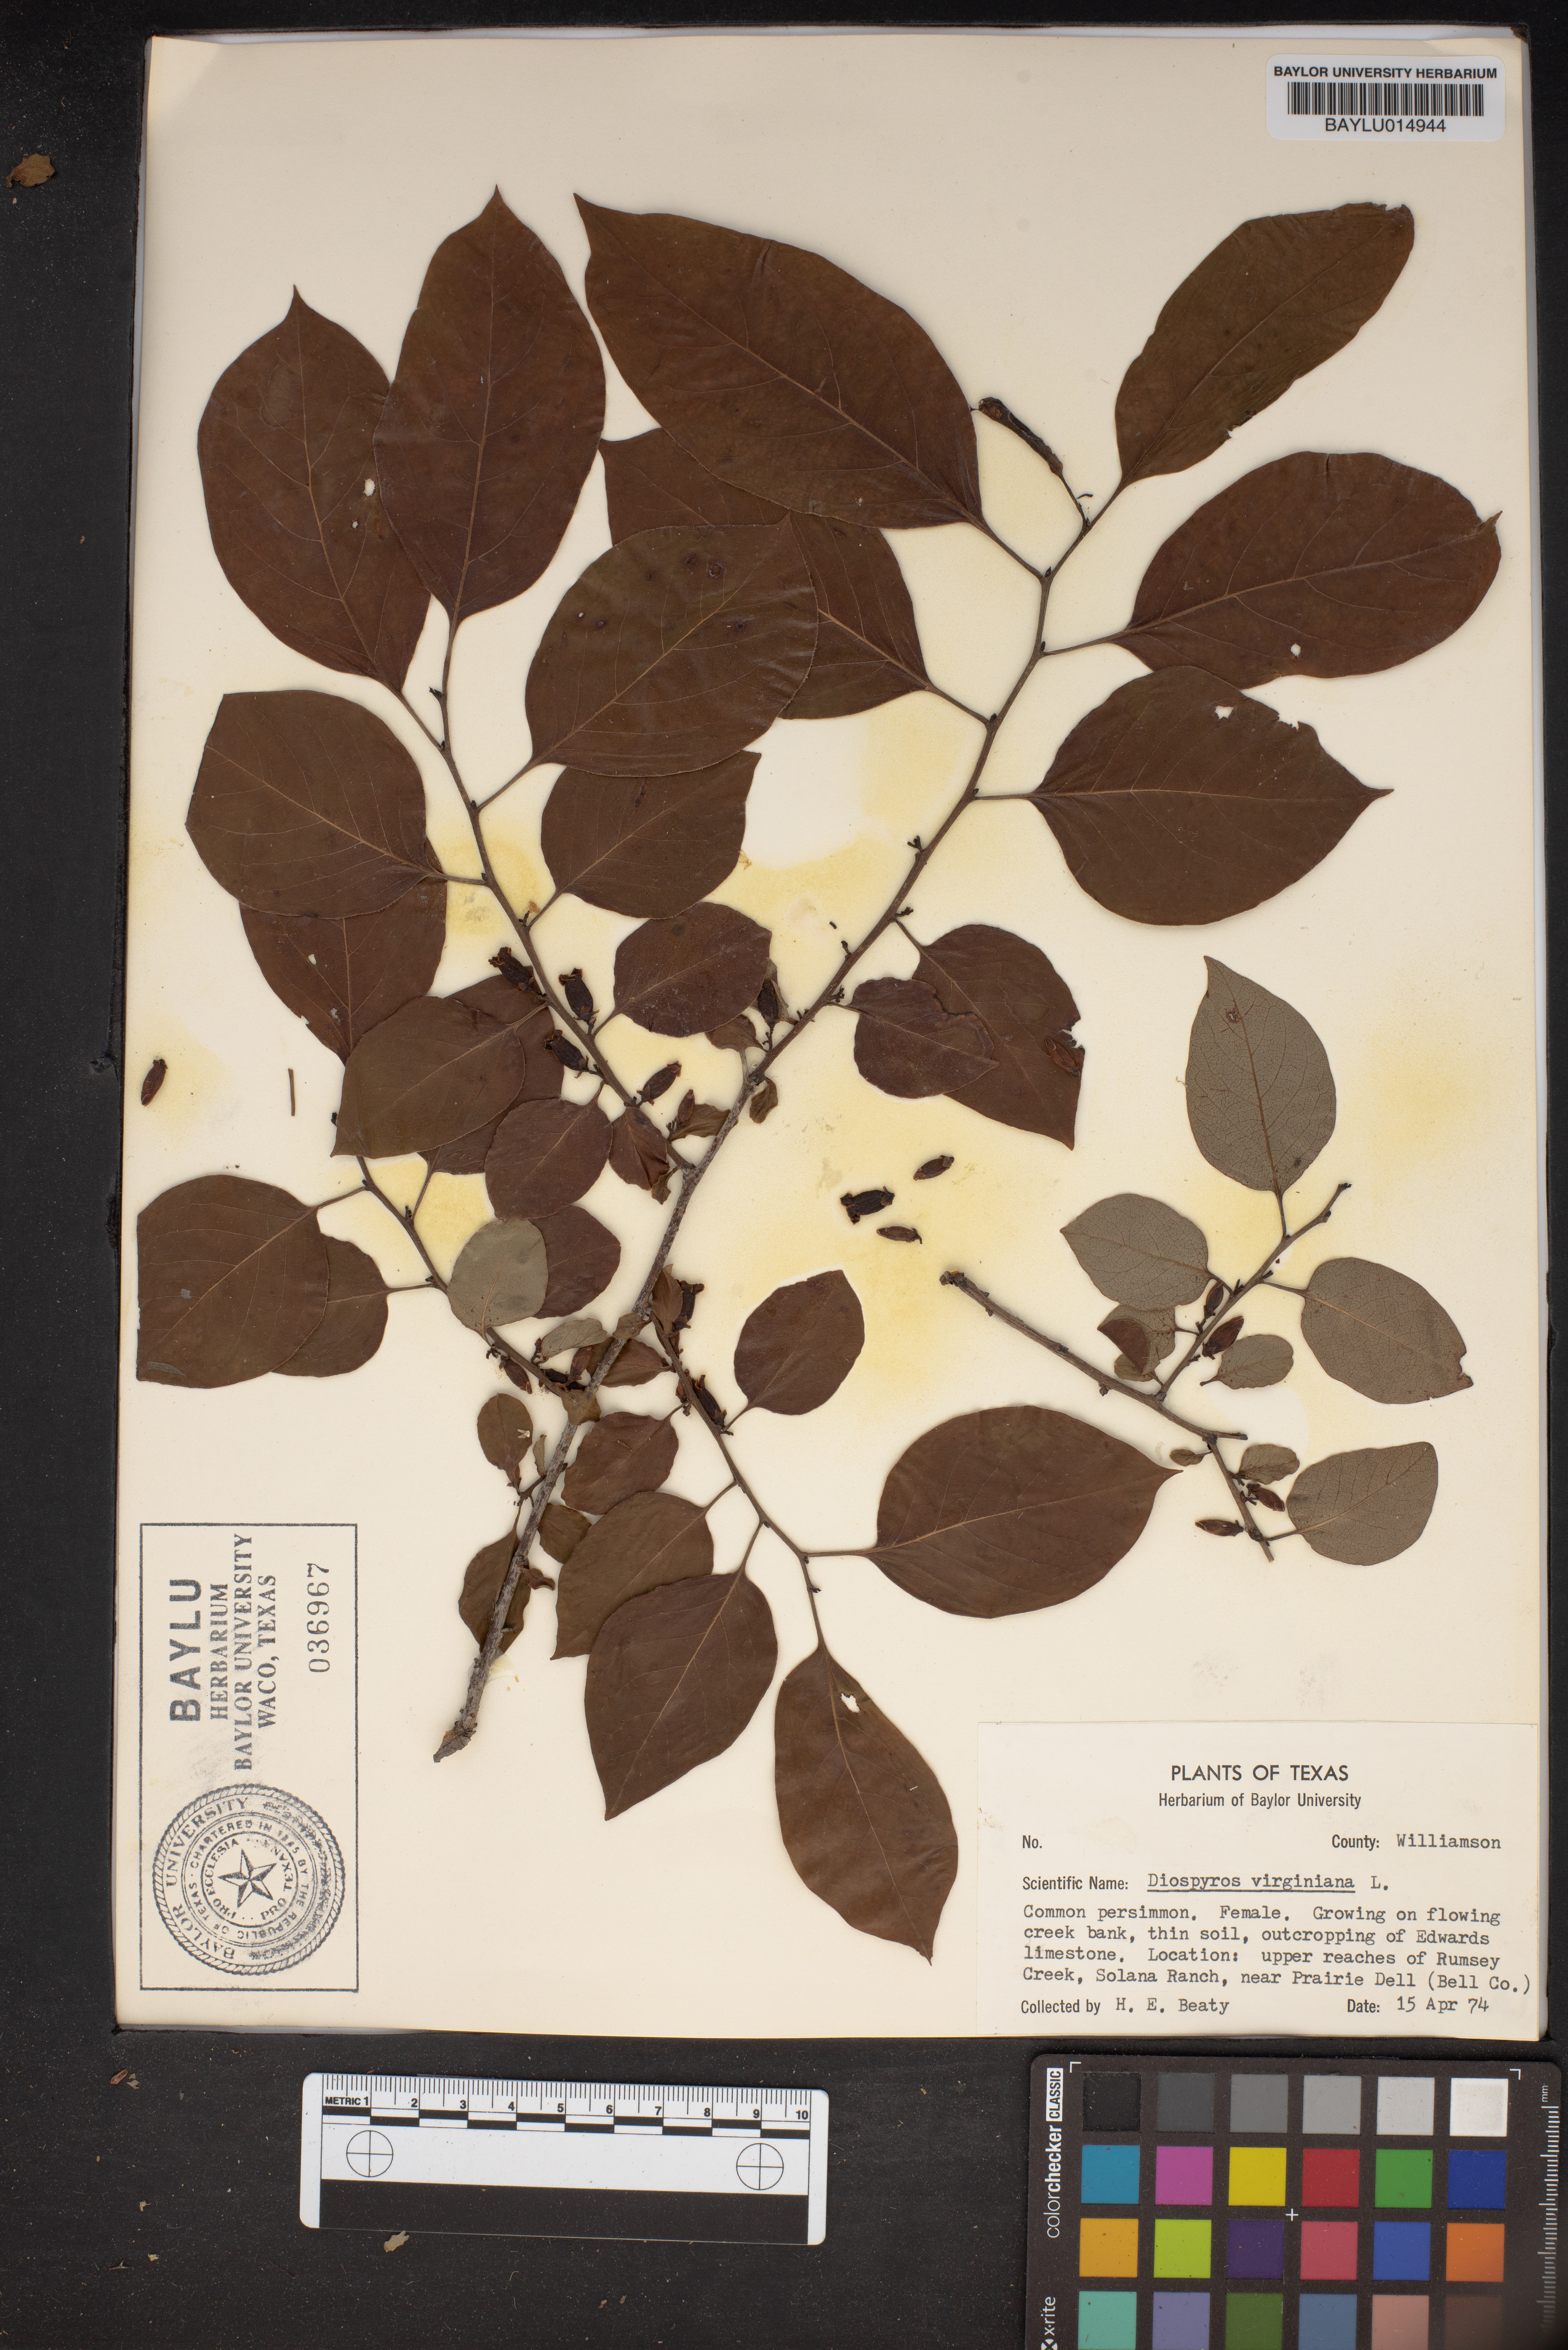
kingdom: Plantae
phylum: Tracheophyta
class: Magnoliopsida
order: Ericales
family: Ebenaceae
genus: Diospyros
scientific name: Diospyros virginiana
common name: Persimmon
